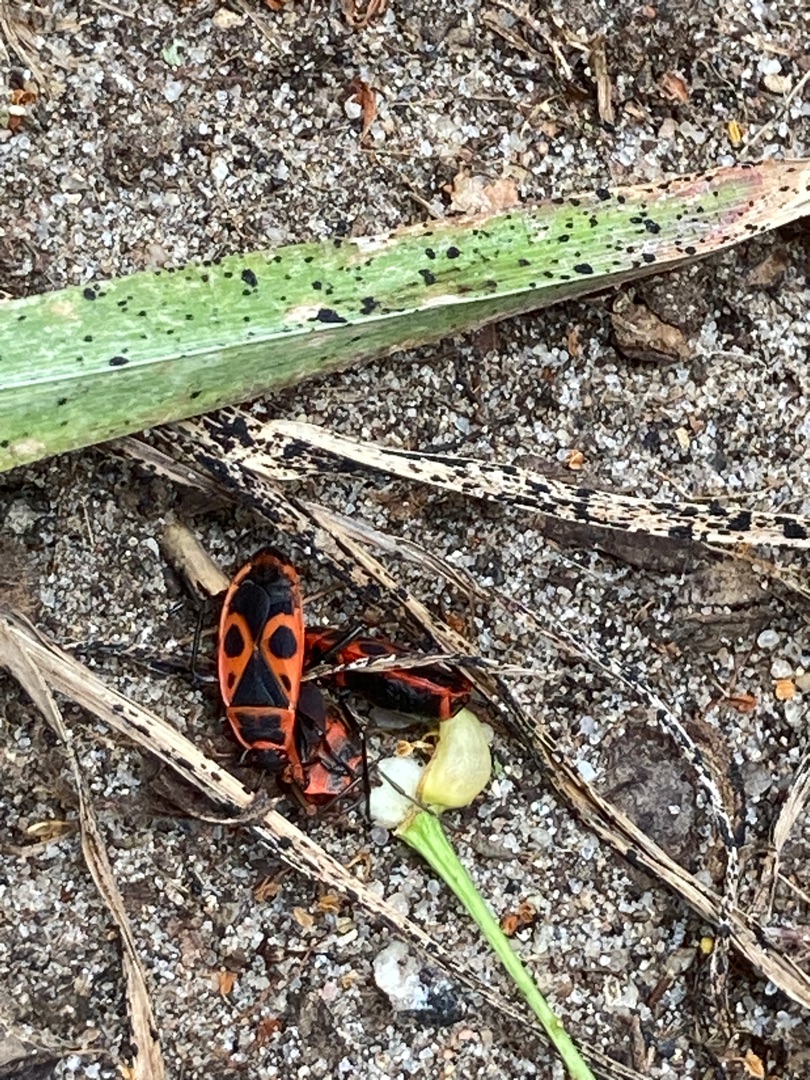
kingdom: Animalia
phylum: Arthropoda
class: Insecta
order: Hemiptera
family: Pyrrhocoridae
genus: Pyrrhocoris
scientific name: Pyrrhocoris apterus
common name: Ildtæge
